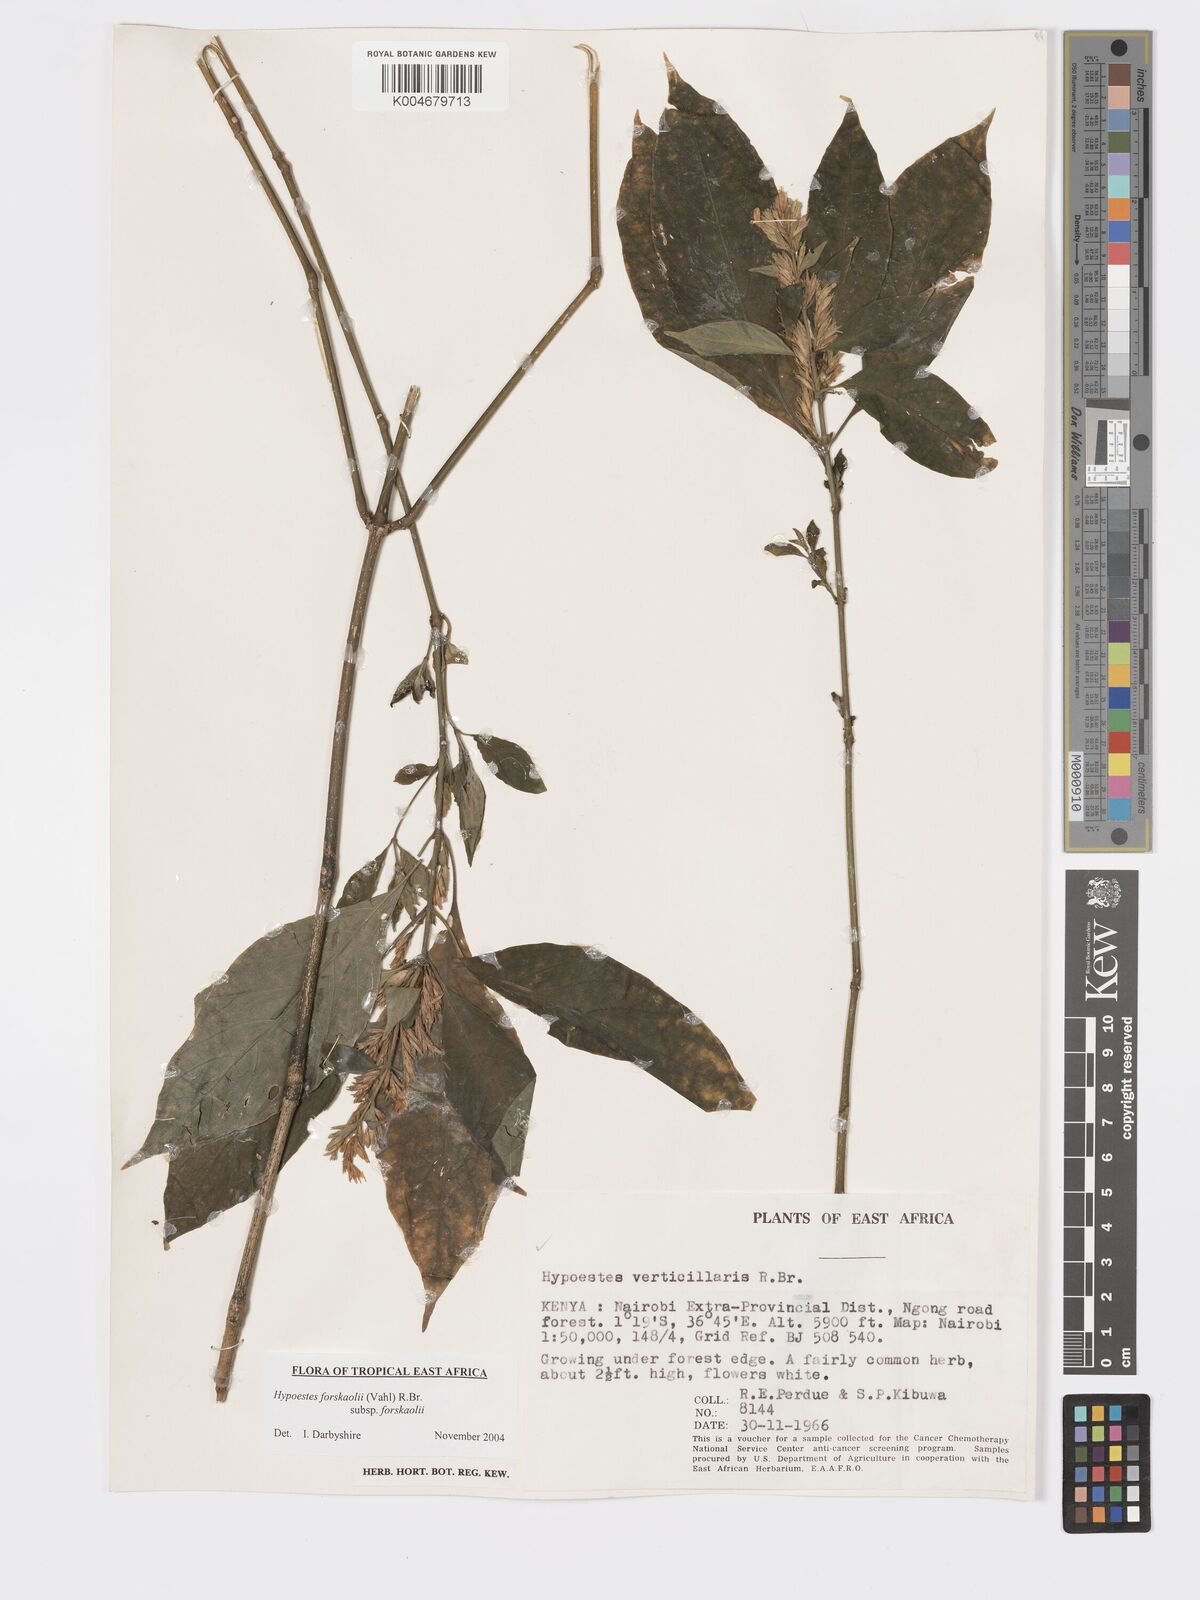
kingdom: Plantae
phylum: Tracheophyta
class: Magnoliopsida
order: Lamiales
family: Acanthaceae
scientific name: Acanthaceae
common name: Acanthaceae
